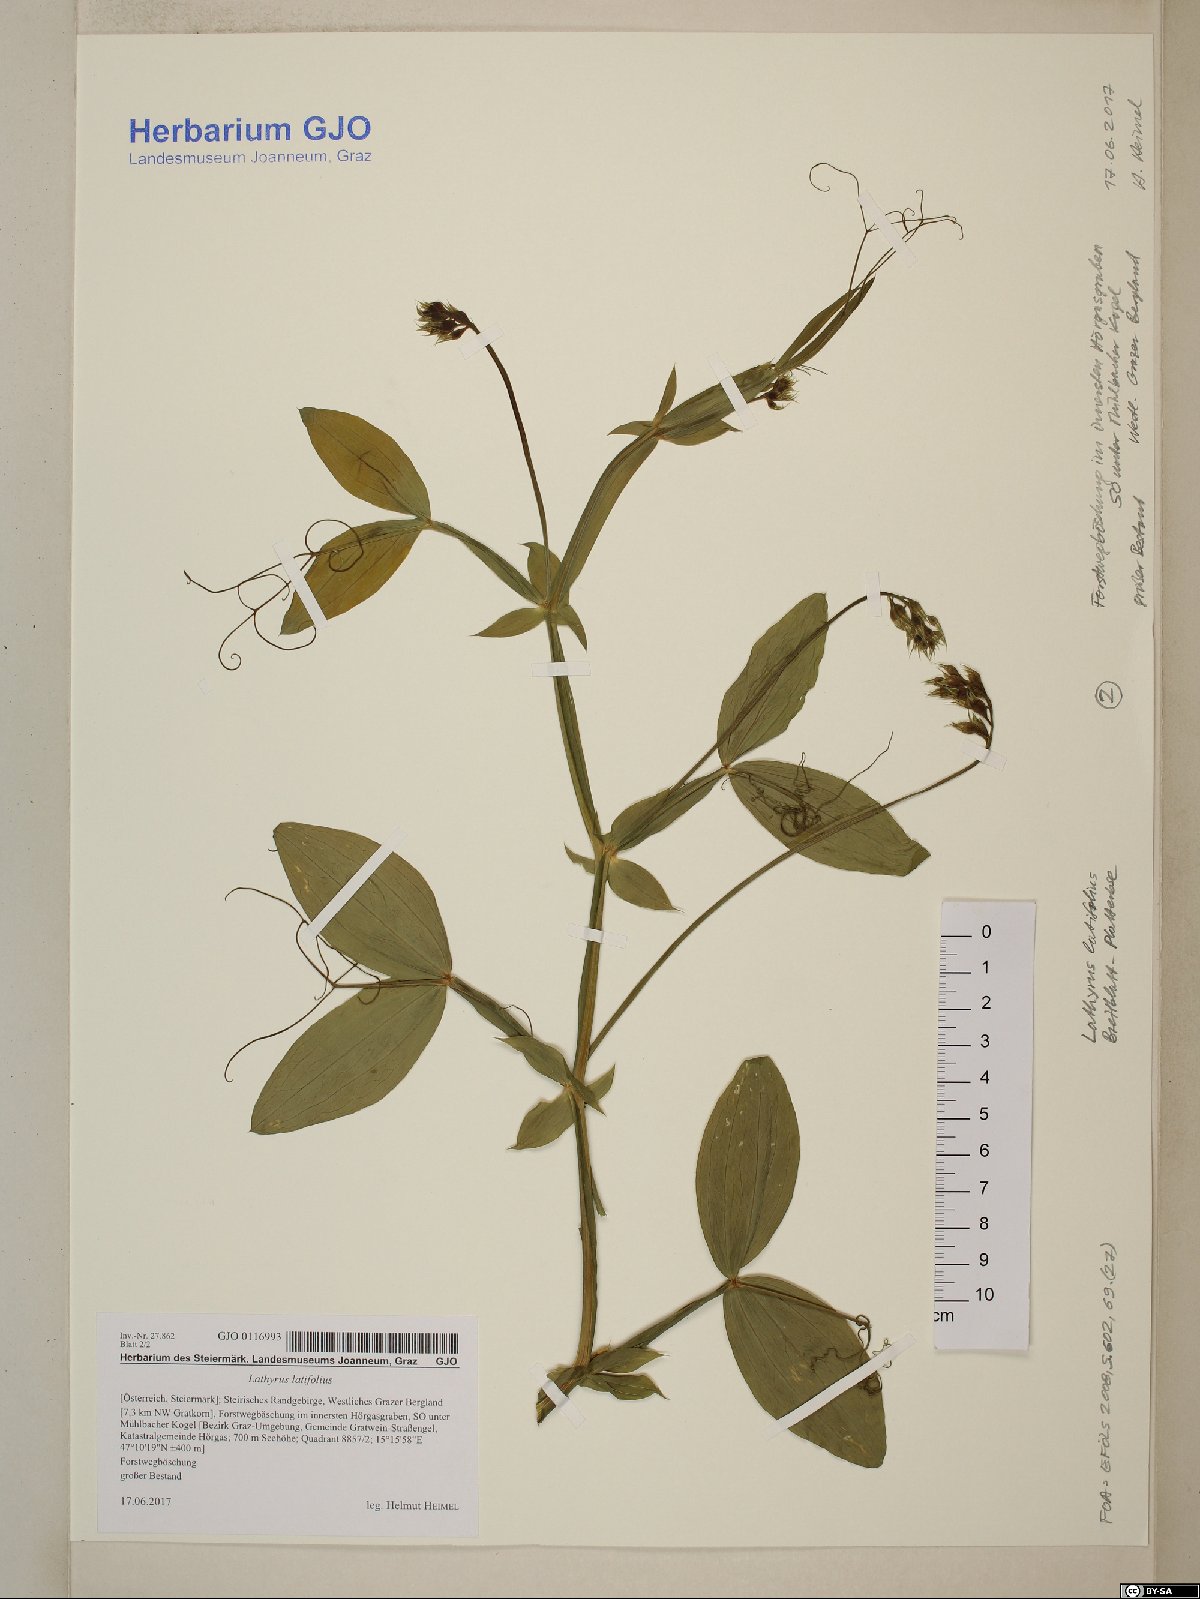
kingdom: Plantae
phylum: Tracheophyta
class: Magnoliopsida
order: Fabales
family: Fabaceae
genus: Lathyrus
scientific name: Lathyrus latifolius
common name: Perennial pea
